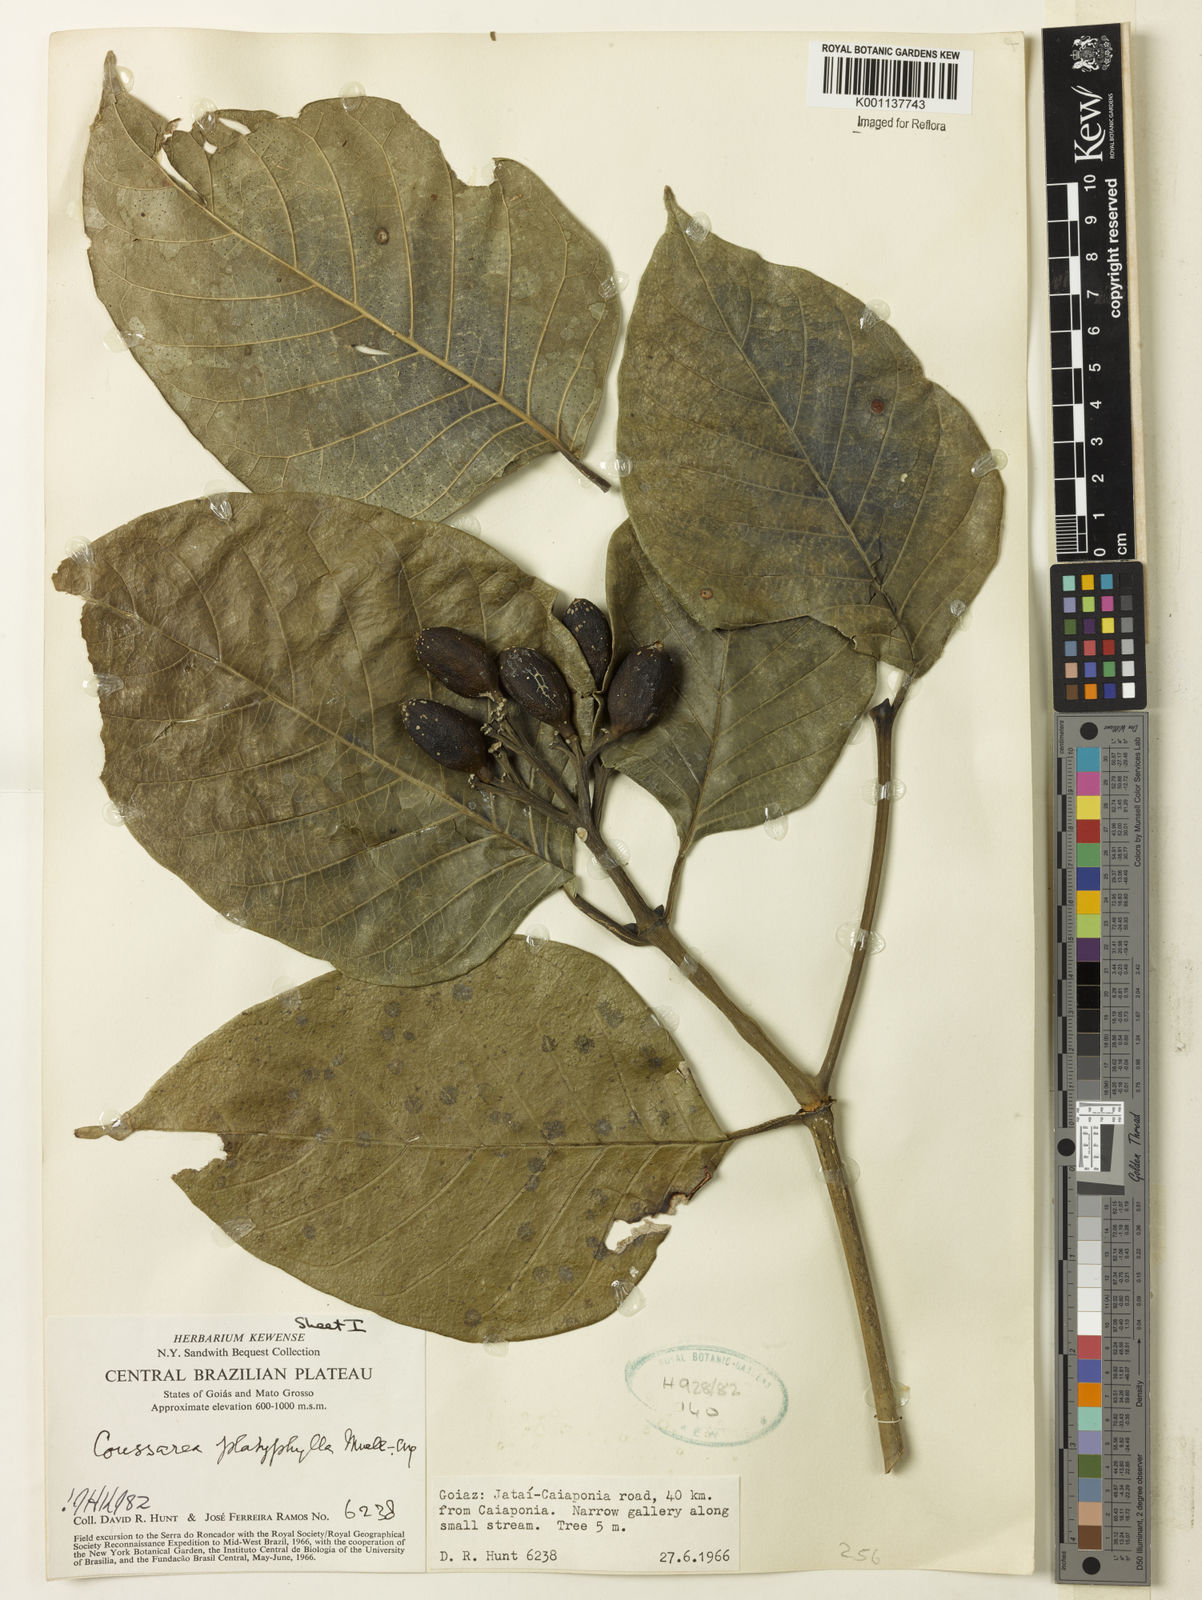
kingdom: Plantae
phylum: Tracheophyta
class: Magnoliopsida
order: Gentianales
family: Rubiaceae
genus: Coussarea
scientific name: Coussarea
